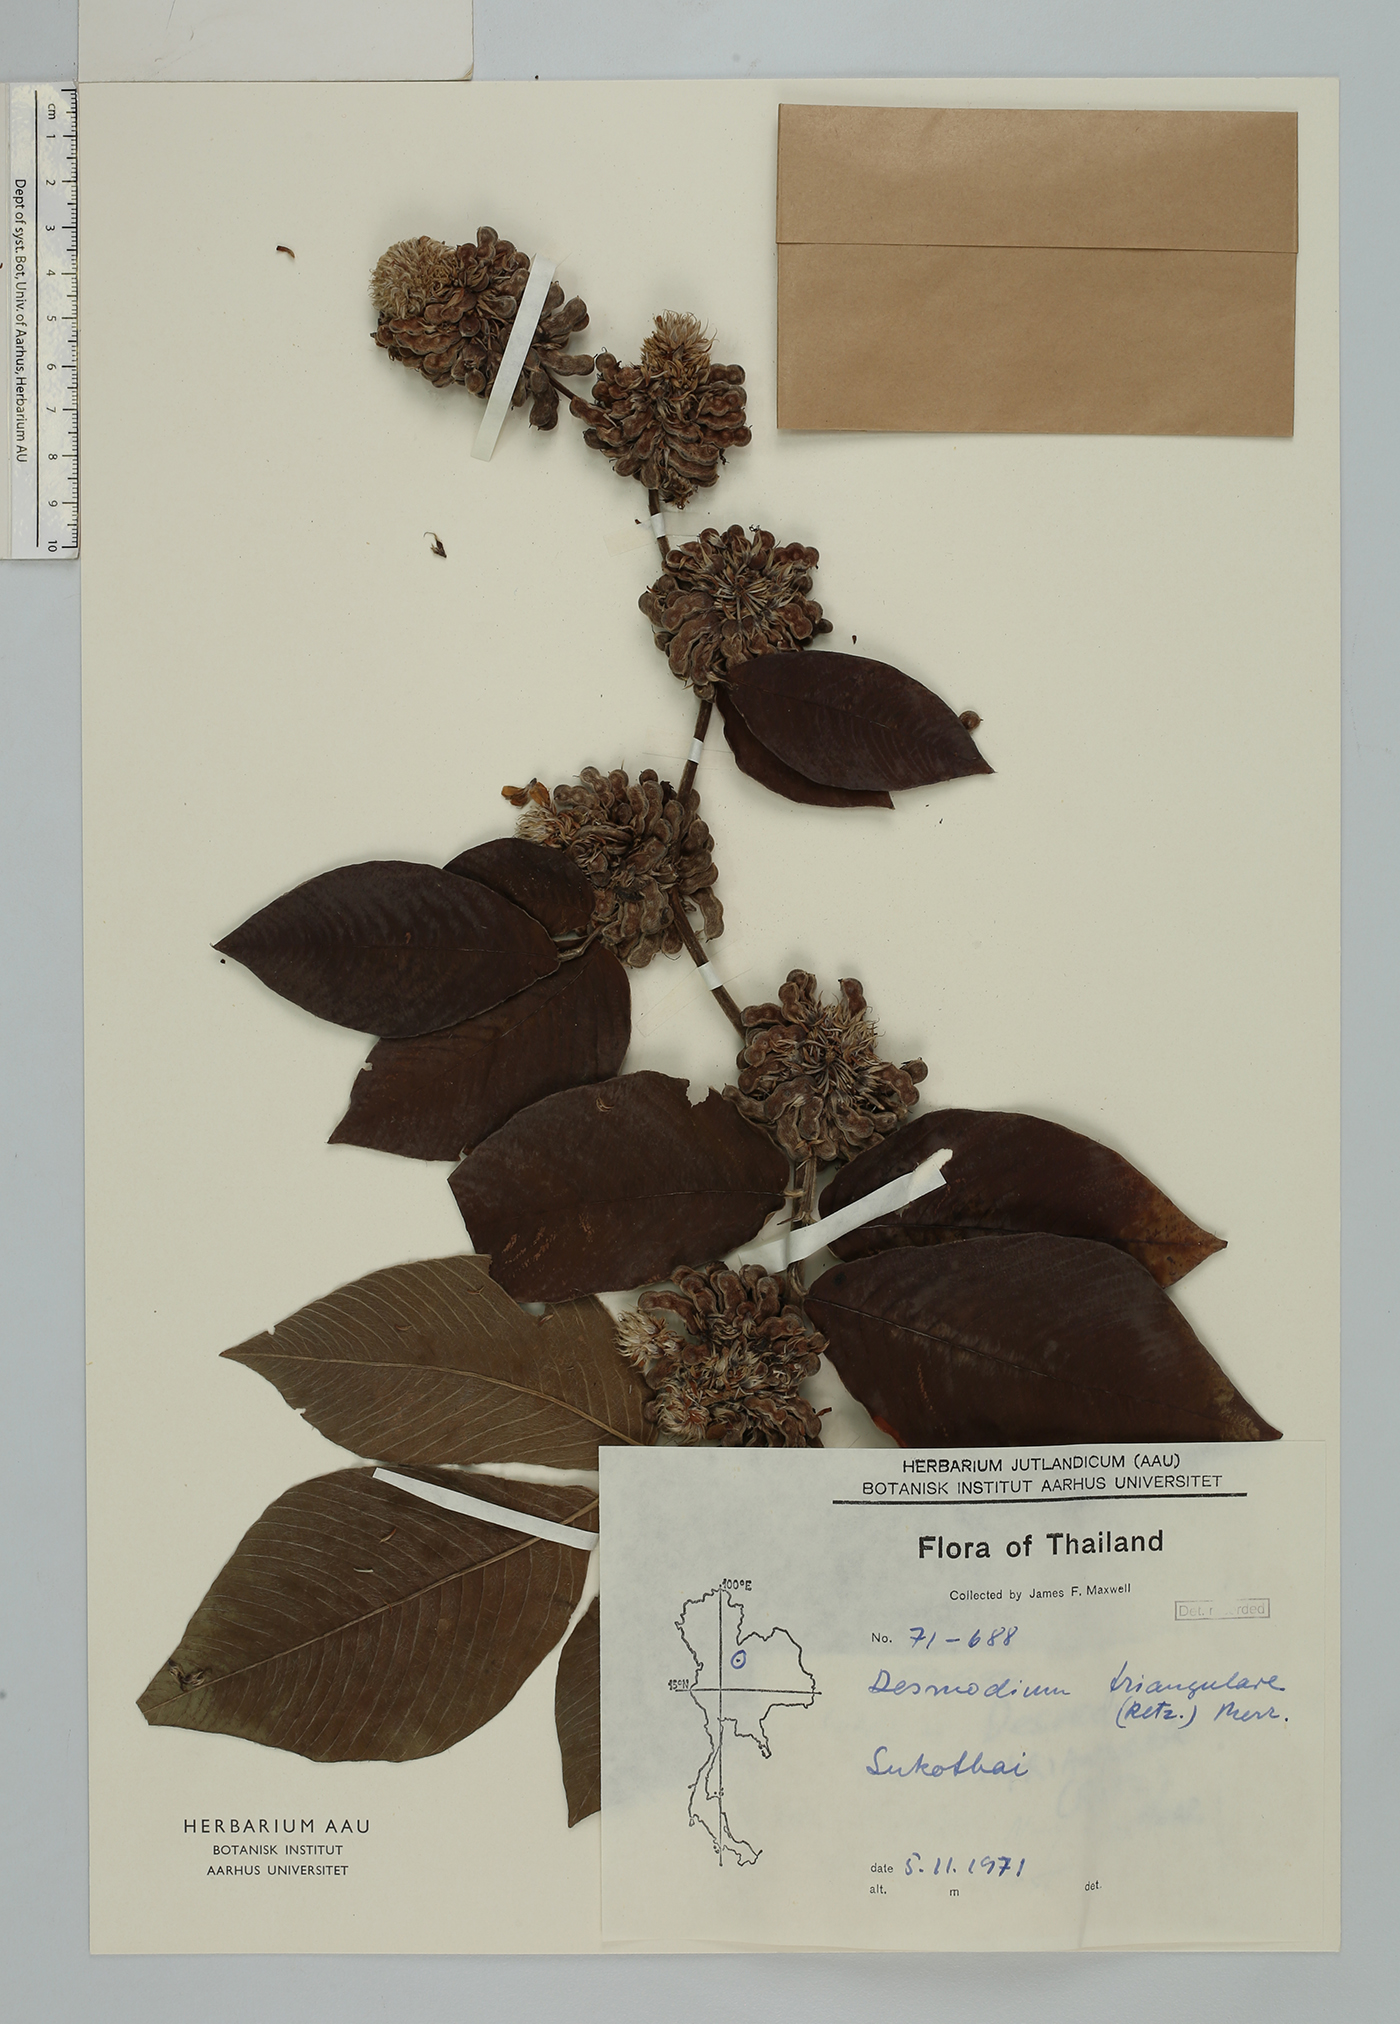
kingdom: Plantae
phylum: Tracheophyta
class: Magnoliopsida
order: Fabales
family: Fabaceae
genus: Dendrolobium
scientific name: Dendrolobium triangulare
